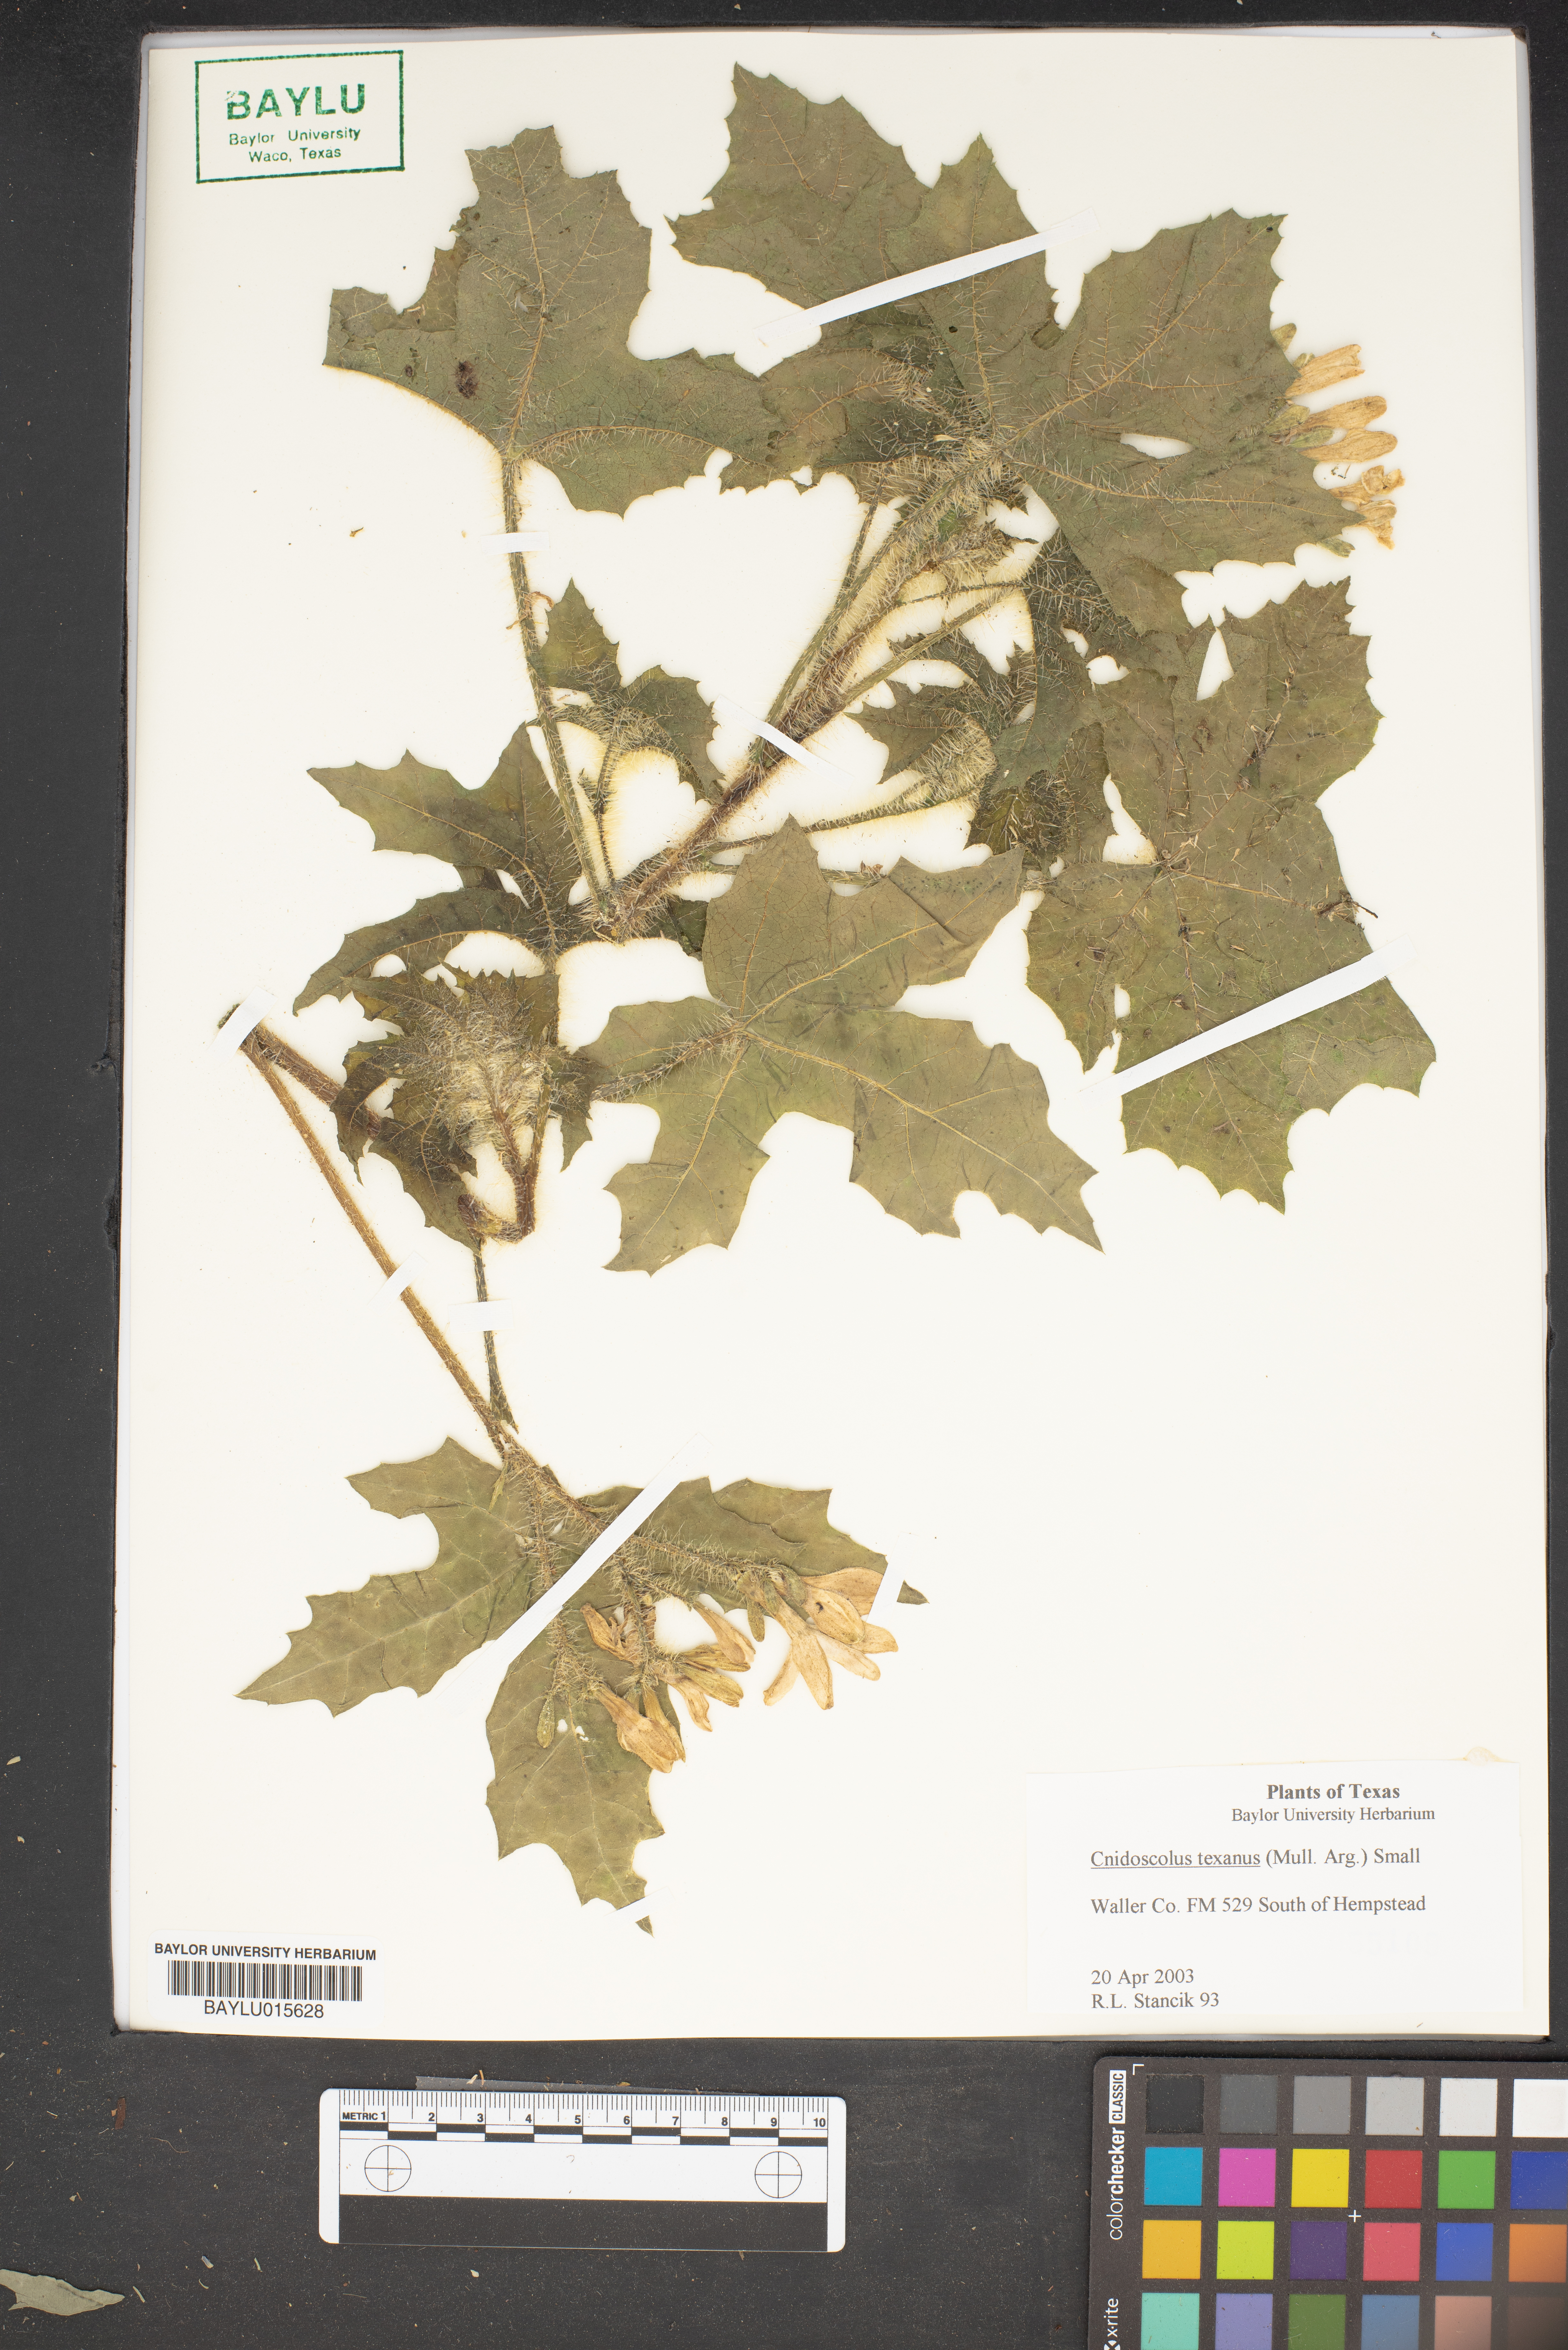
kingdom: Plantae
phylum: Tracheophyta
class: Magnoliopsida
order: Malpighiales
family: Euphorbiaceae
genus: Cnidoscolus
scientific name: Cnidoscolus texanus
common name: Texas bull-nettle
